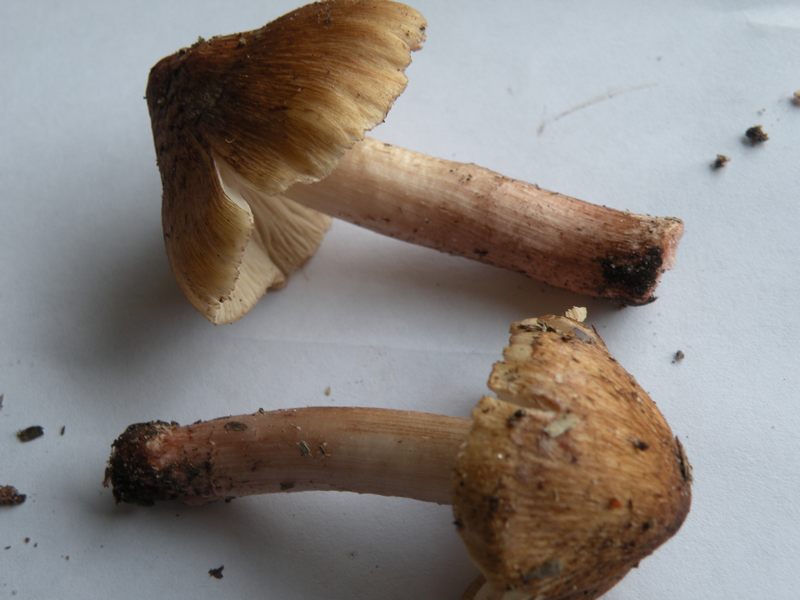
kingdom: Fungi
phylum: Basidiomycota
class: Agaricomycetes
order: Agaricales
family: Inocybaceae
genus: Inosperma
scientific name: Inosperma adaequatum
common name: vinrød trævlhat
